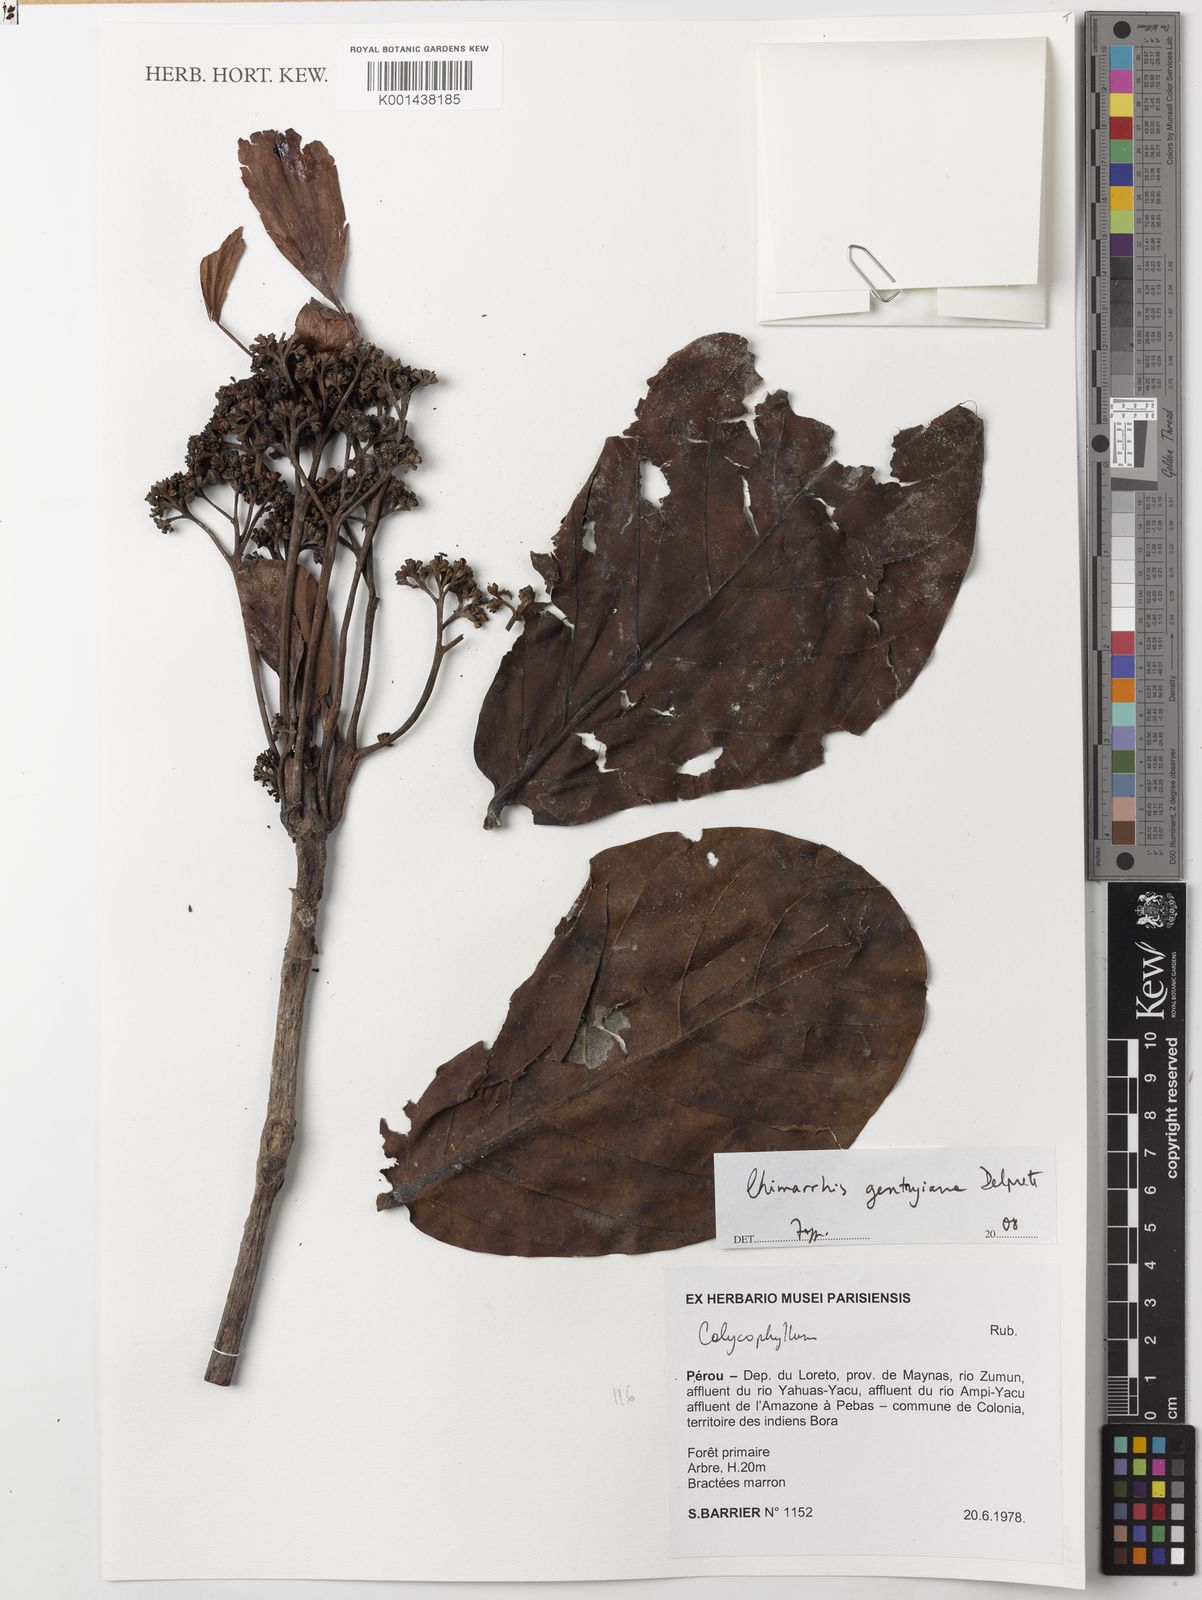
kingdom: Plantae
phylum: Tracheophyta
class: Magnoliopsida
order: Gentianales
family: Rubiaceae
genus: Chimarrhis
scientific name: Chimarrhis gentryana
